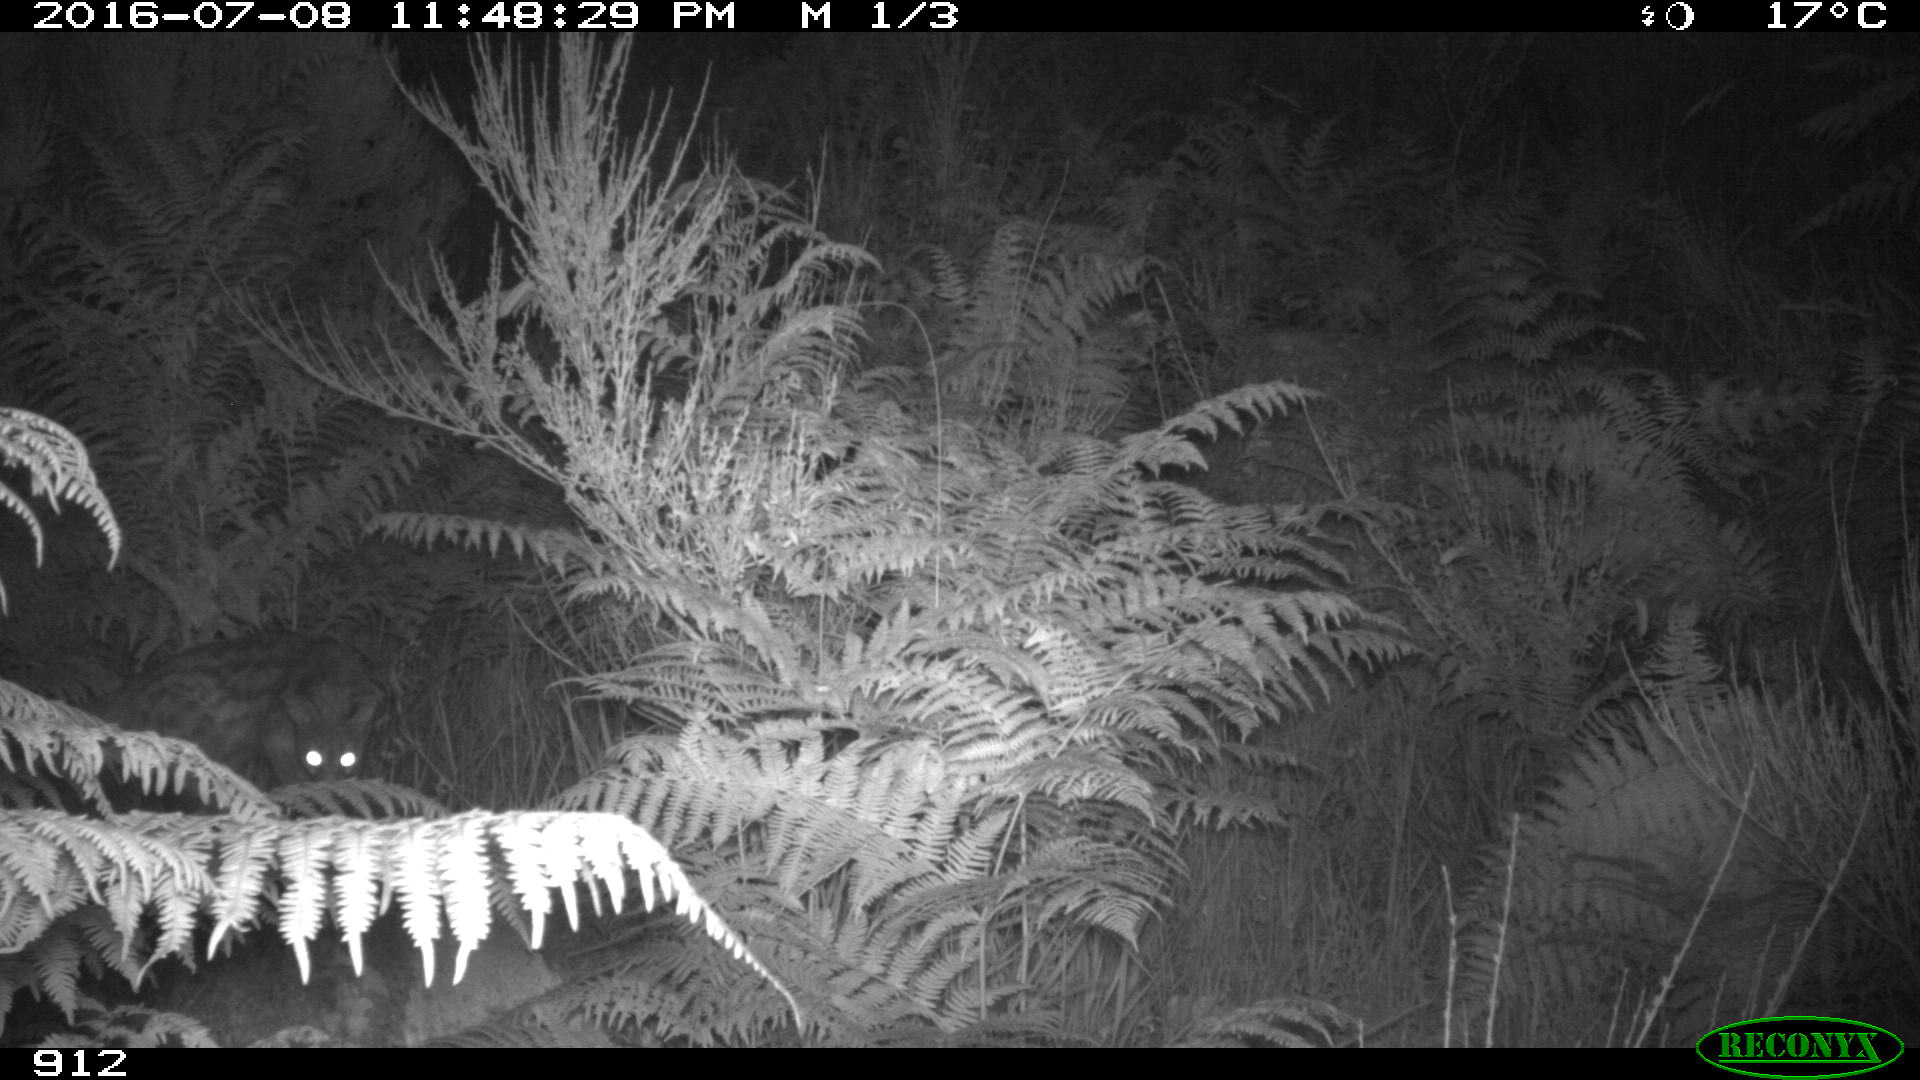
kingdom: Animalia
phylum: Chordata
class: Mammalia
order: Carnivora
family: Viverridae
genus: Genetta
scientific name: Genetta genetta
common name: Common genet
